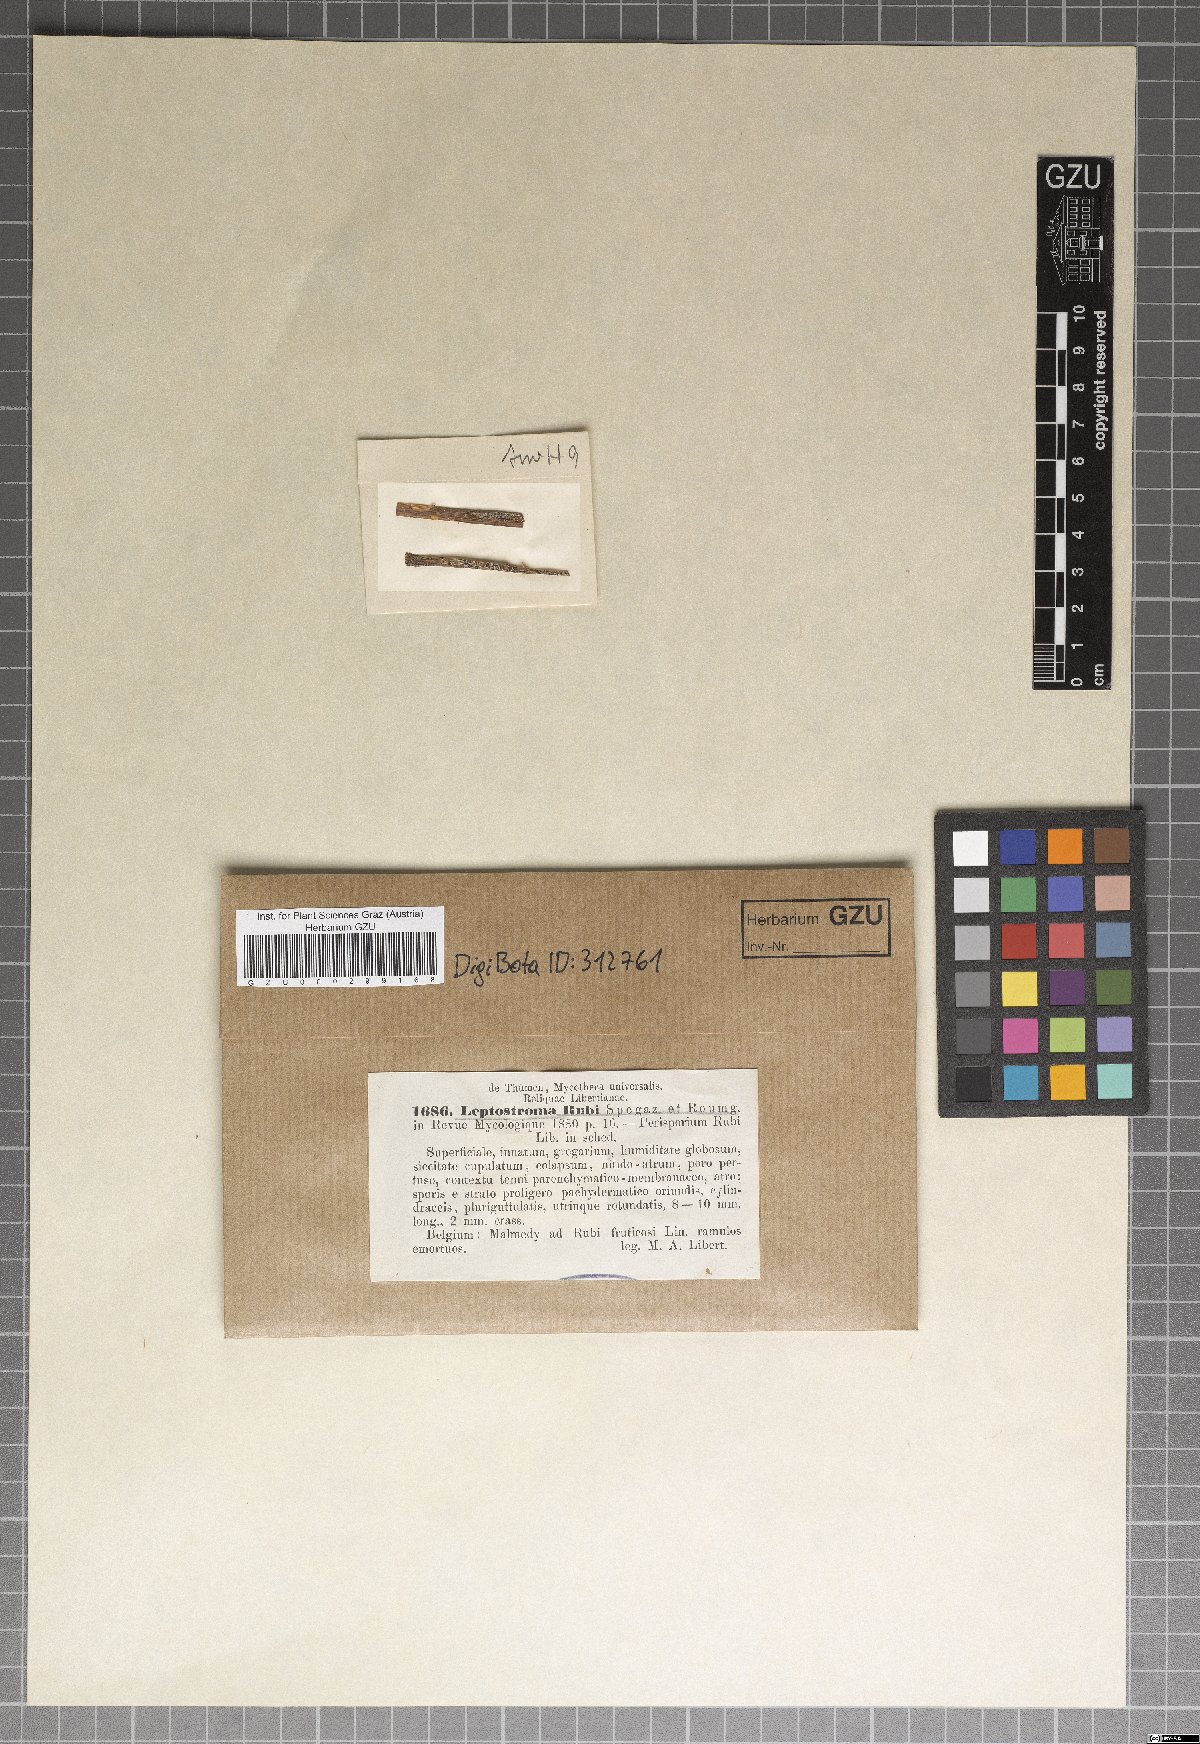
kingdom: Fungi
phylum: Ascomycota
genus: Rhabdostromella
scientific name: Rhabdostromella rubi
